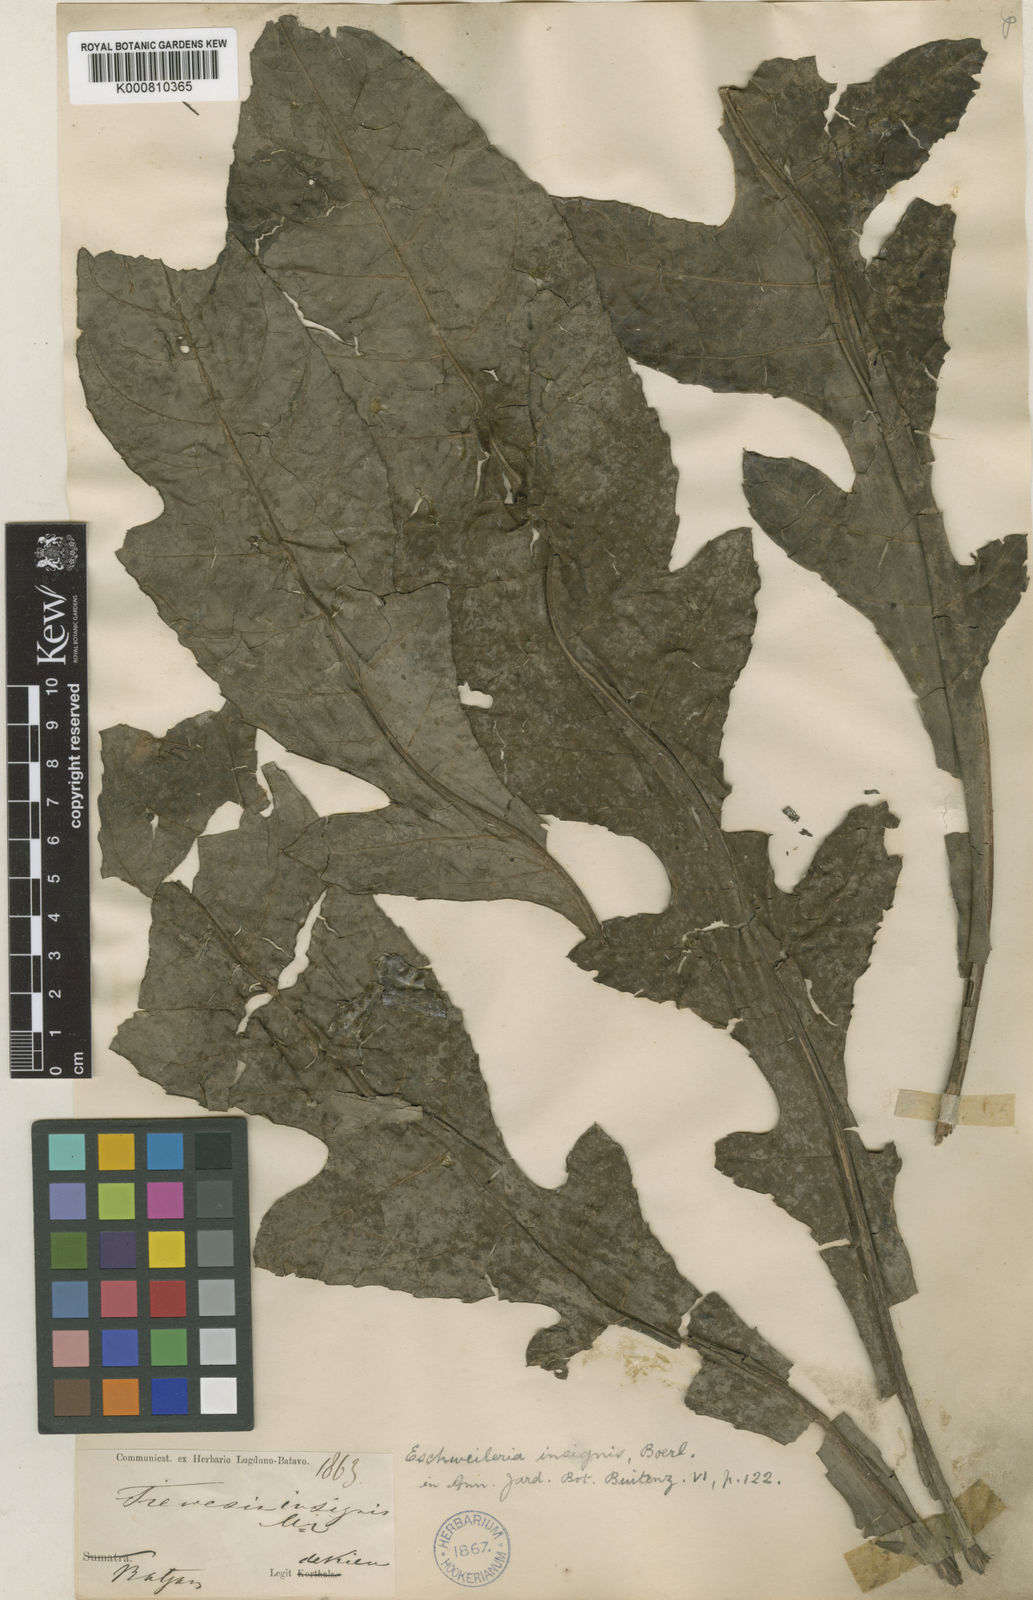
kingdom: Plantae
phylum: Tracheophyta
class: Magnoliopsida
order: Apiales
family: Araliaceae
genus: Osmoxylon
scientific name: Osmoxylon insigne
